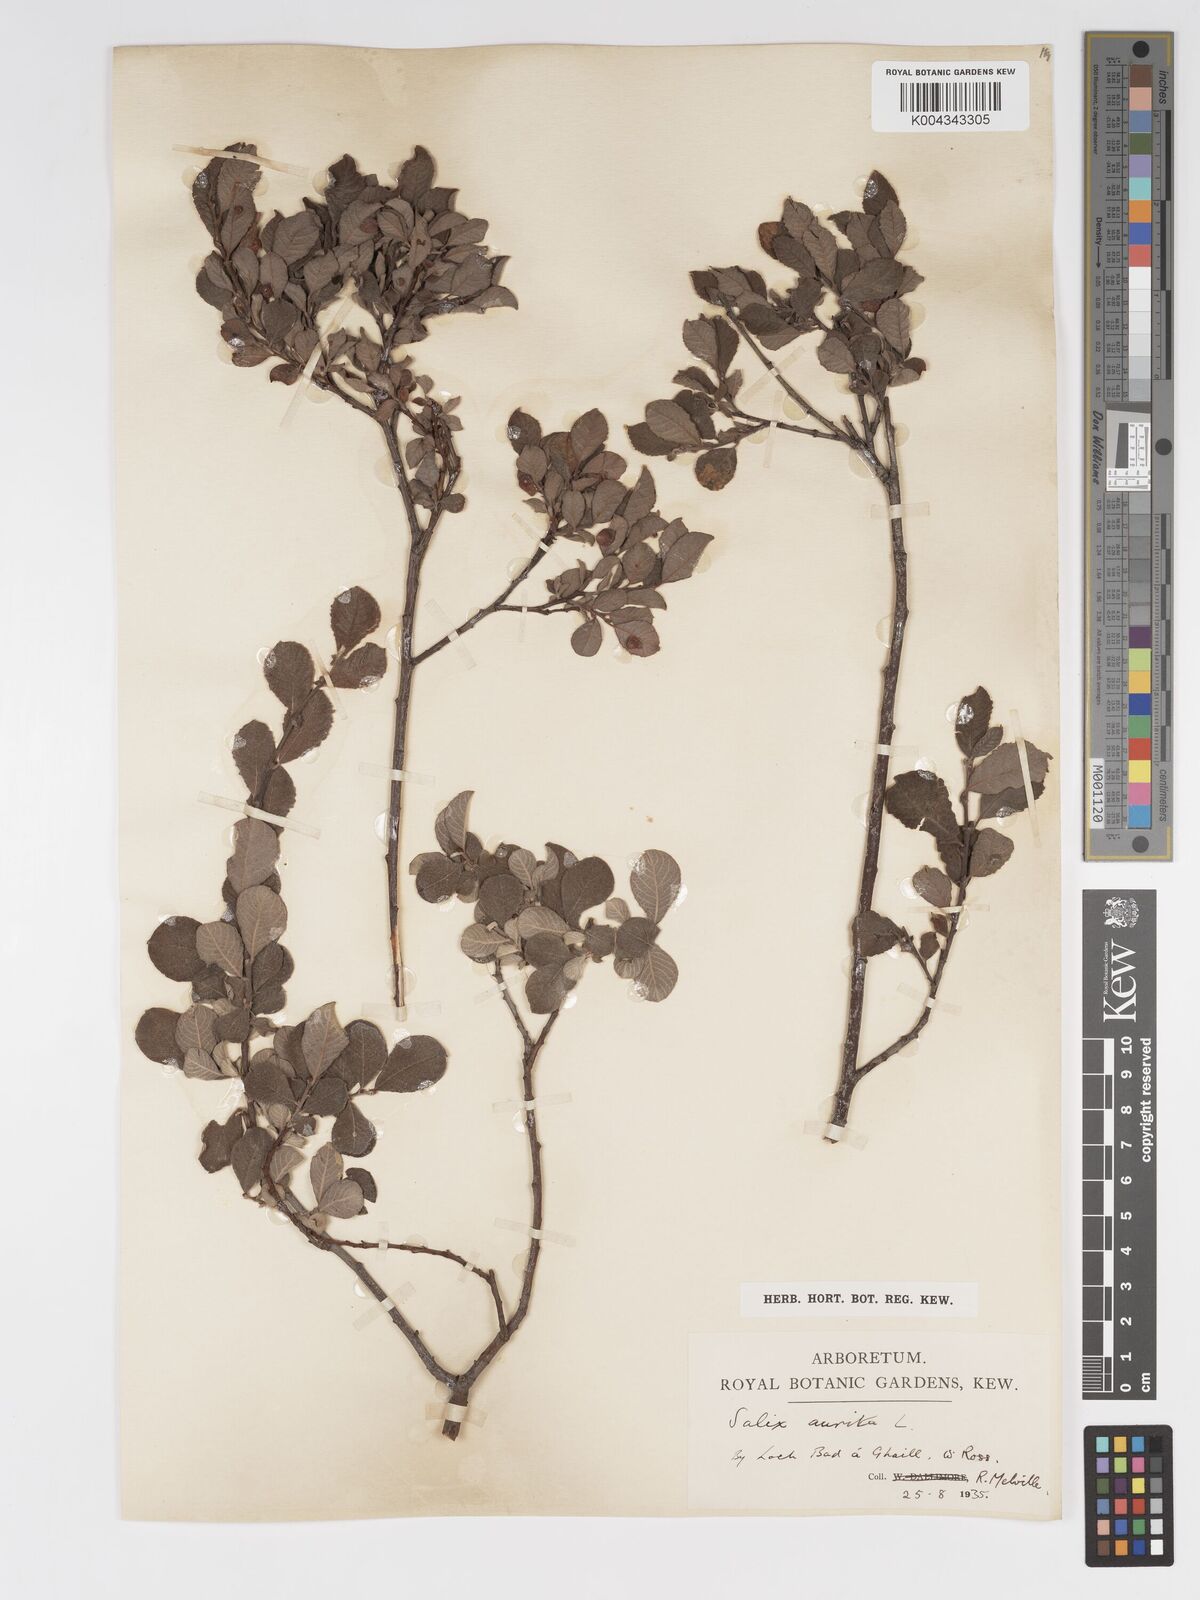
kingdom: Plantae
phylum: Tracheophyta
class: Magnoliopsida
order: Malpighiales
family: Salicaceae
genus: Salix
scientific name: Salix aurita
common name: Eared willow
